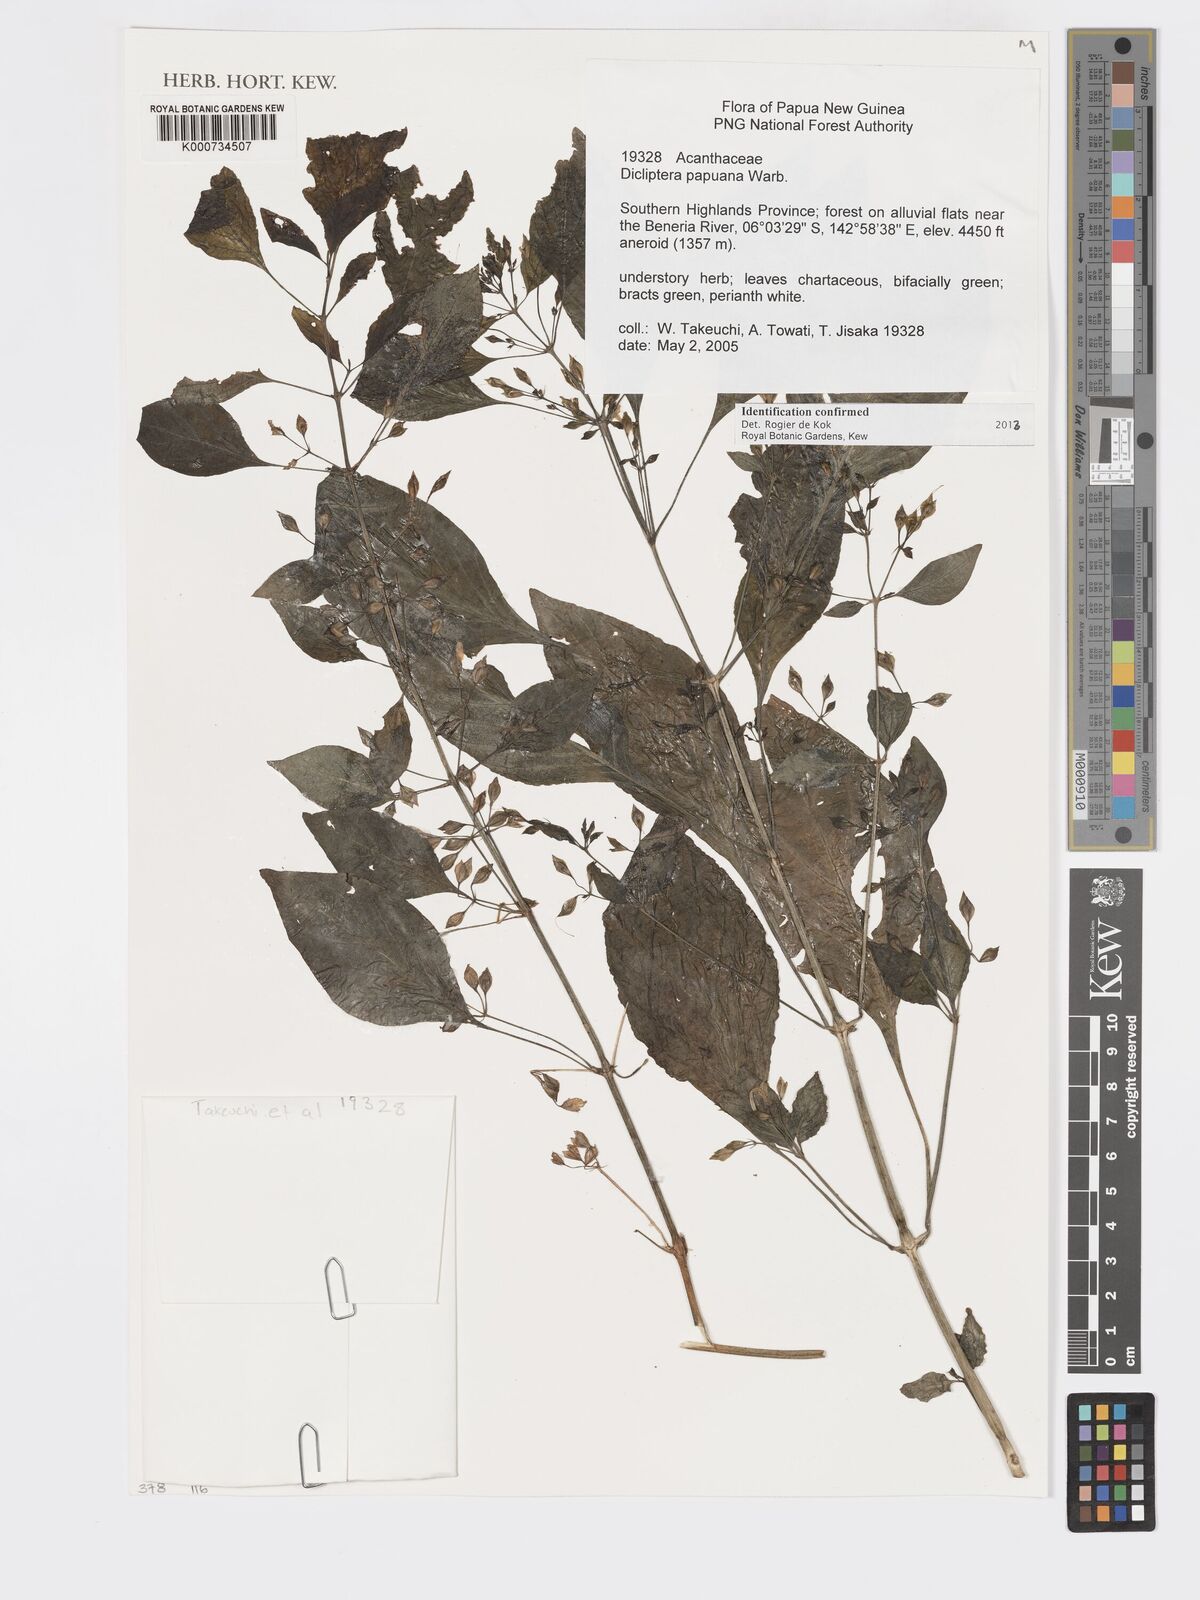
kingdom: Plantae
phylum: Tracheophyta
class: Magnoliopsida
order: Lamiales
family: Acanthaceae
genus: Dicliptera
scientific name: Dicliptera papuana
